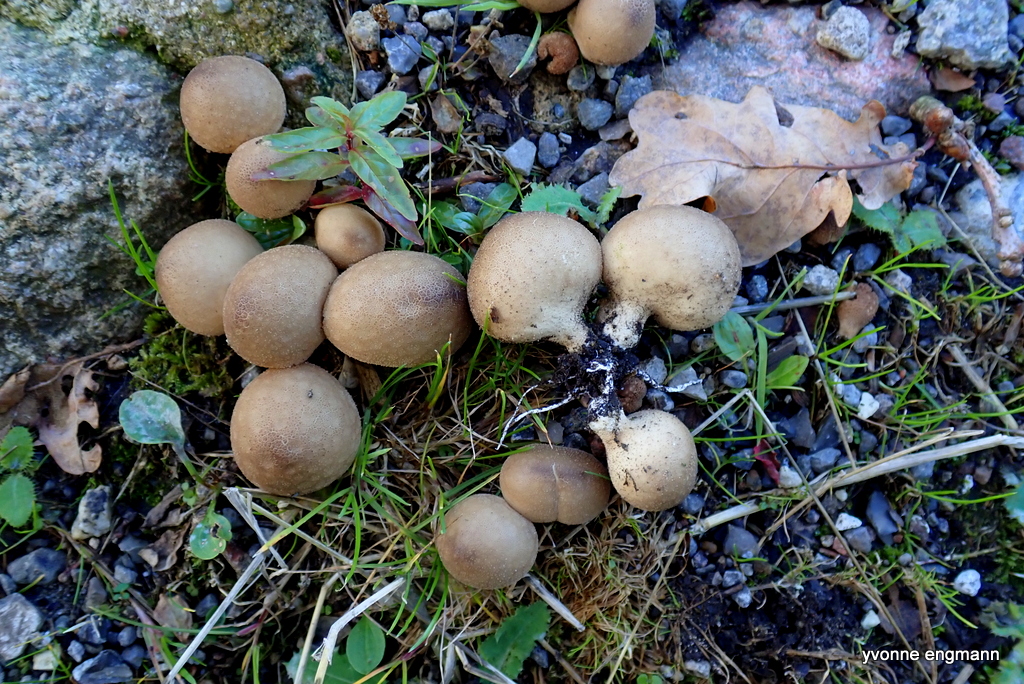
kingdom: Fungi
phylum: Basidiomycota
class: Agaricomycetes
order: Agaricales
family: Lycoperdaceae
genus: Apioperdon
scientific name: Apioperdon pyriforme
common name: pære-støvbold
